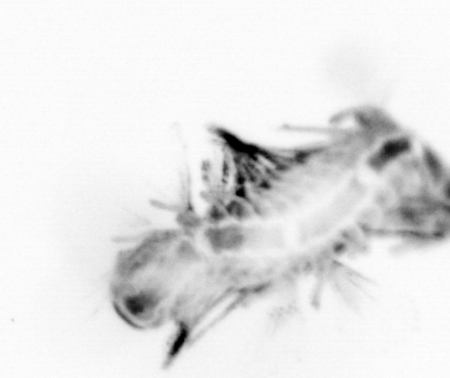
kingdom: Animalia
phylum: Annelida
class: Polychaeta
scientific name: Polychaeta
